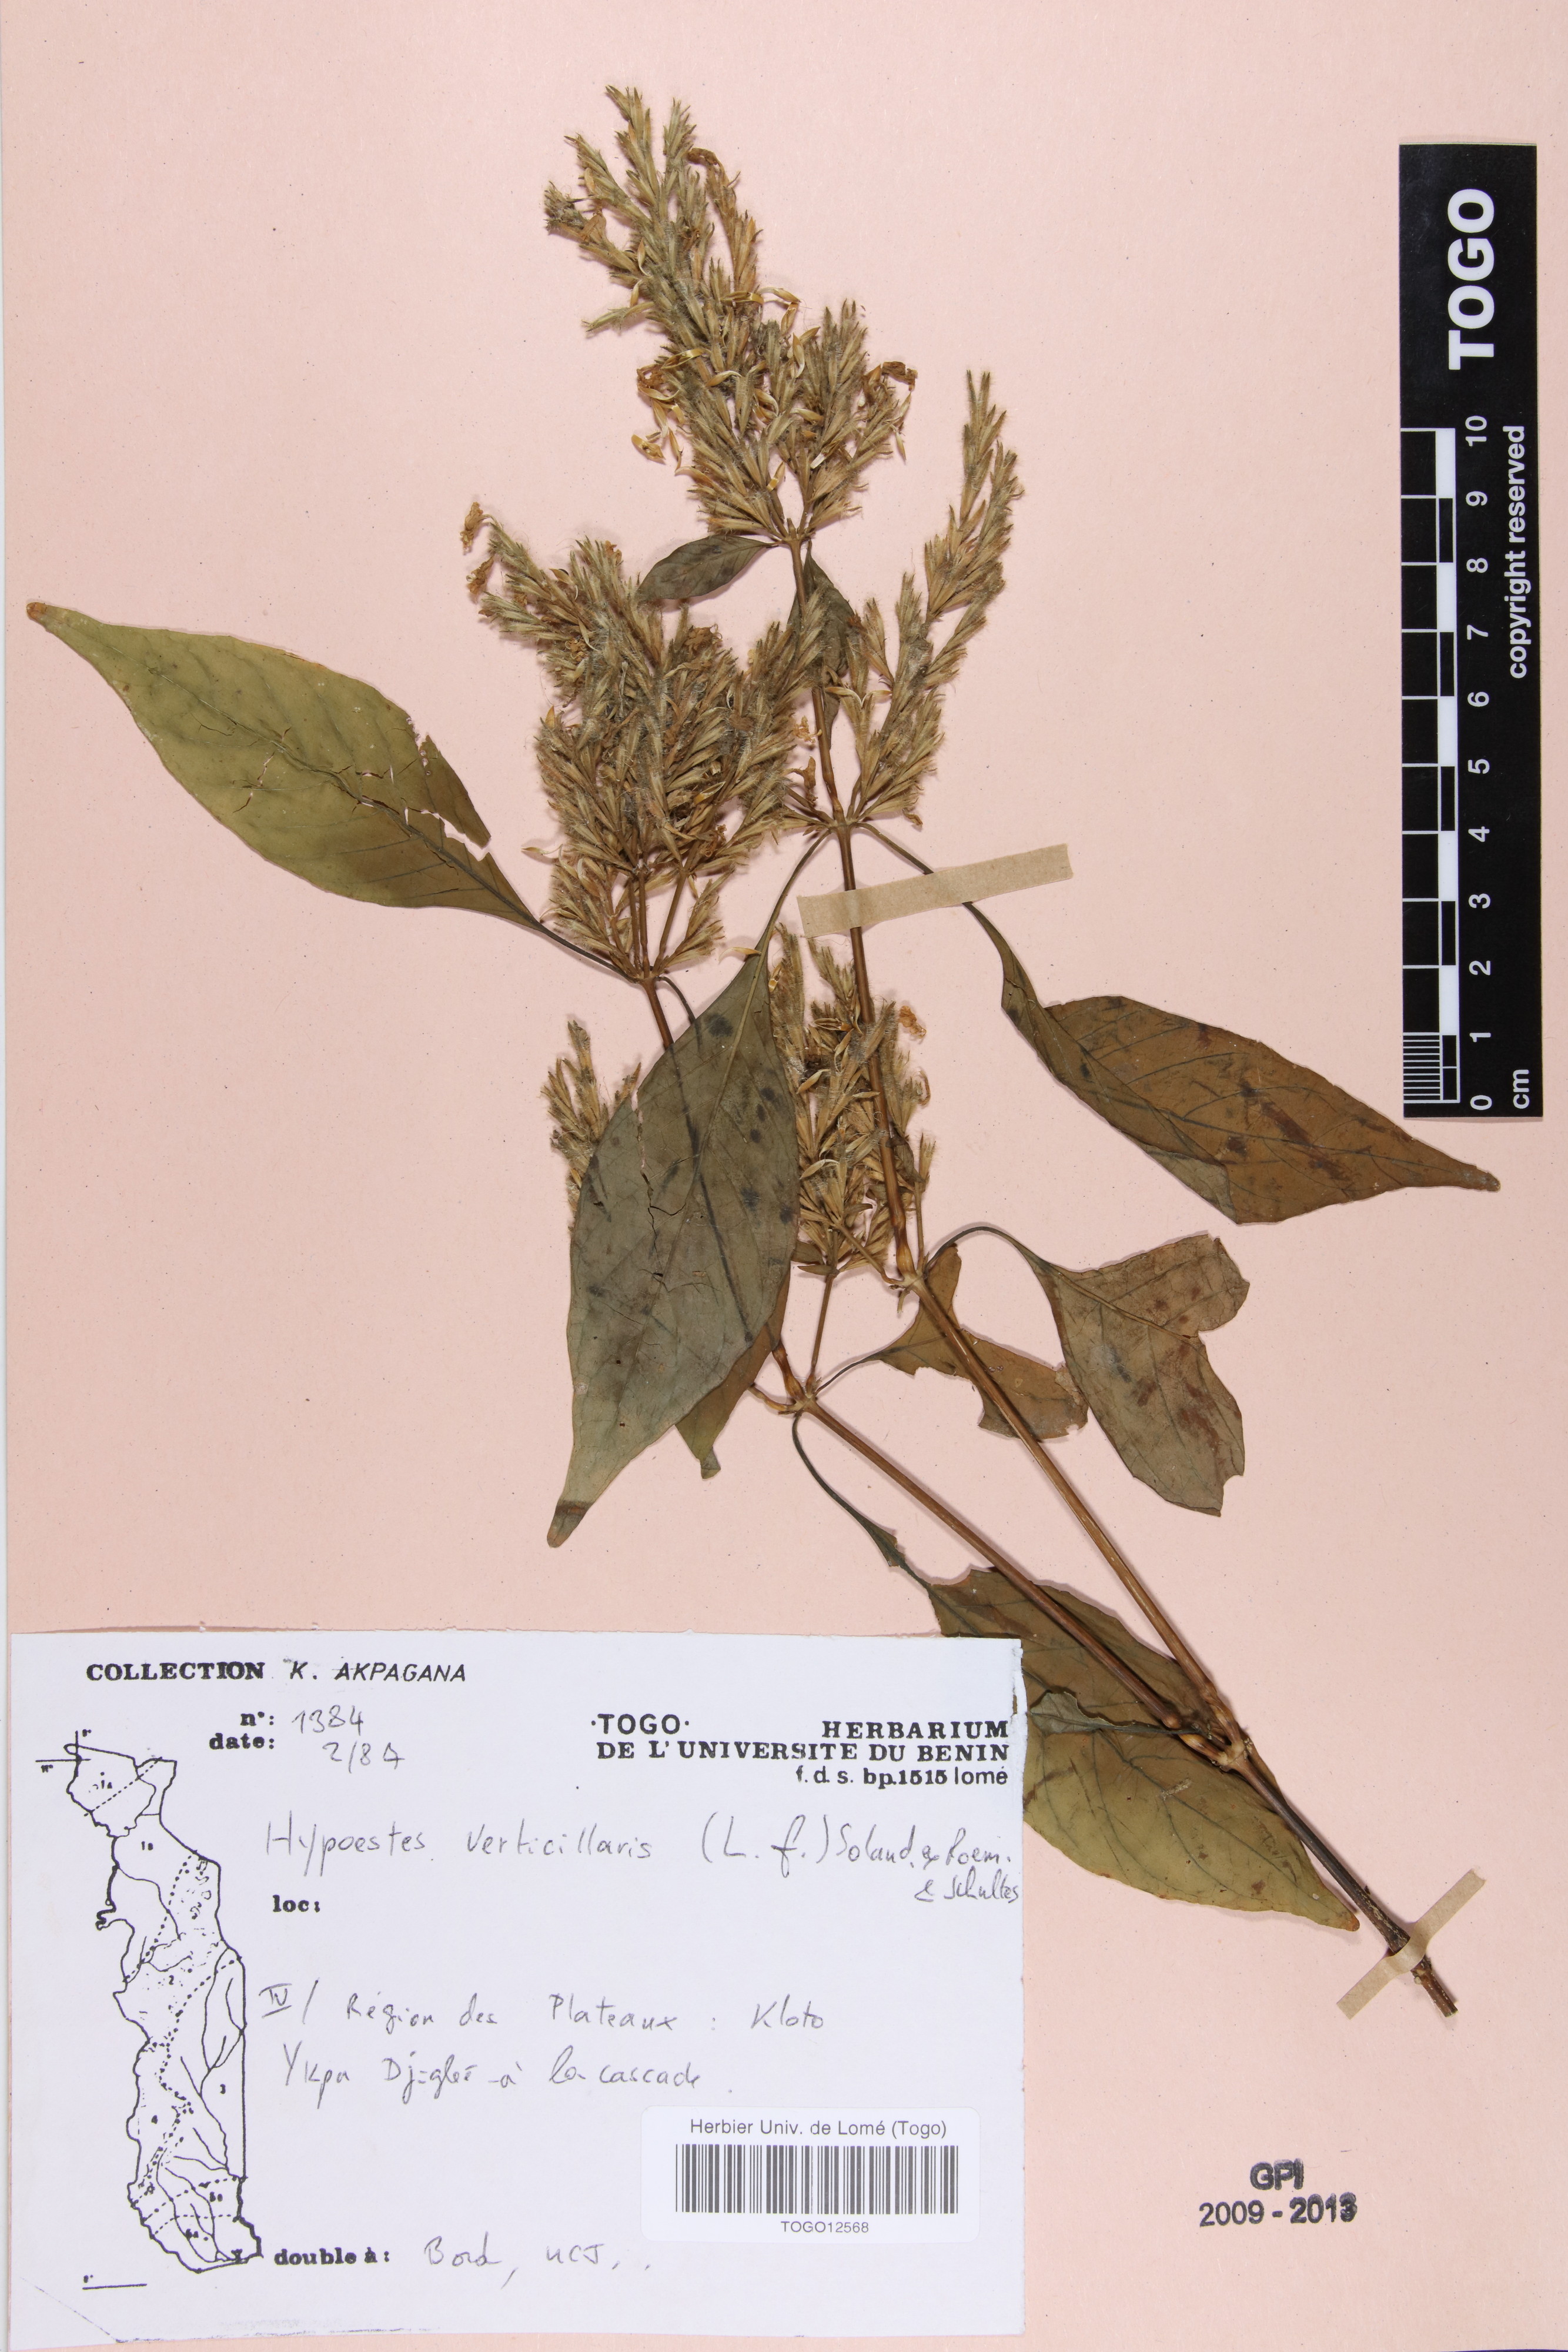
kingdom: Plantae
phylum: Tracheophyta
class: Magnoliopsida
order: Lamiales
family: Acanthaceae
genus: Hypoestes
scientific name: Hypoestes aristata
